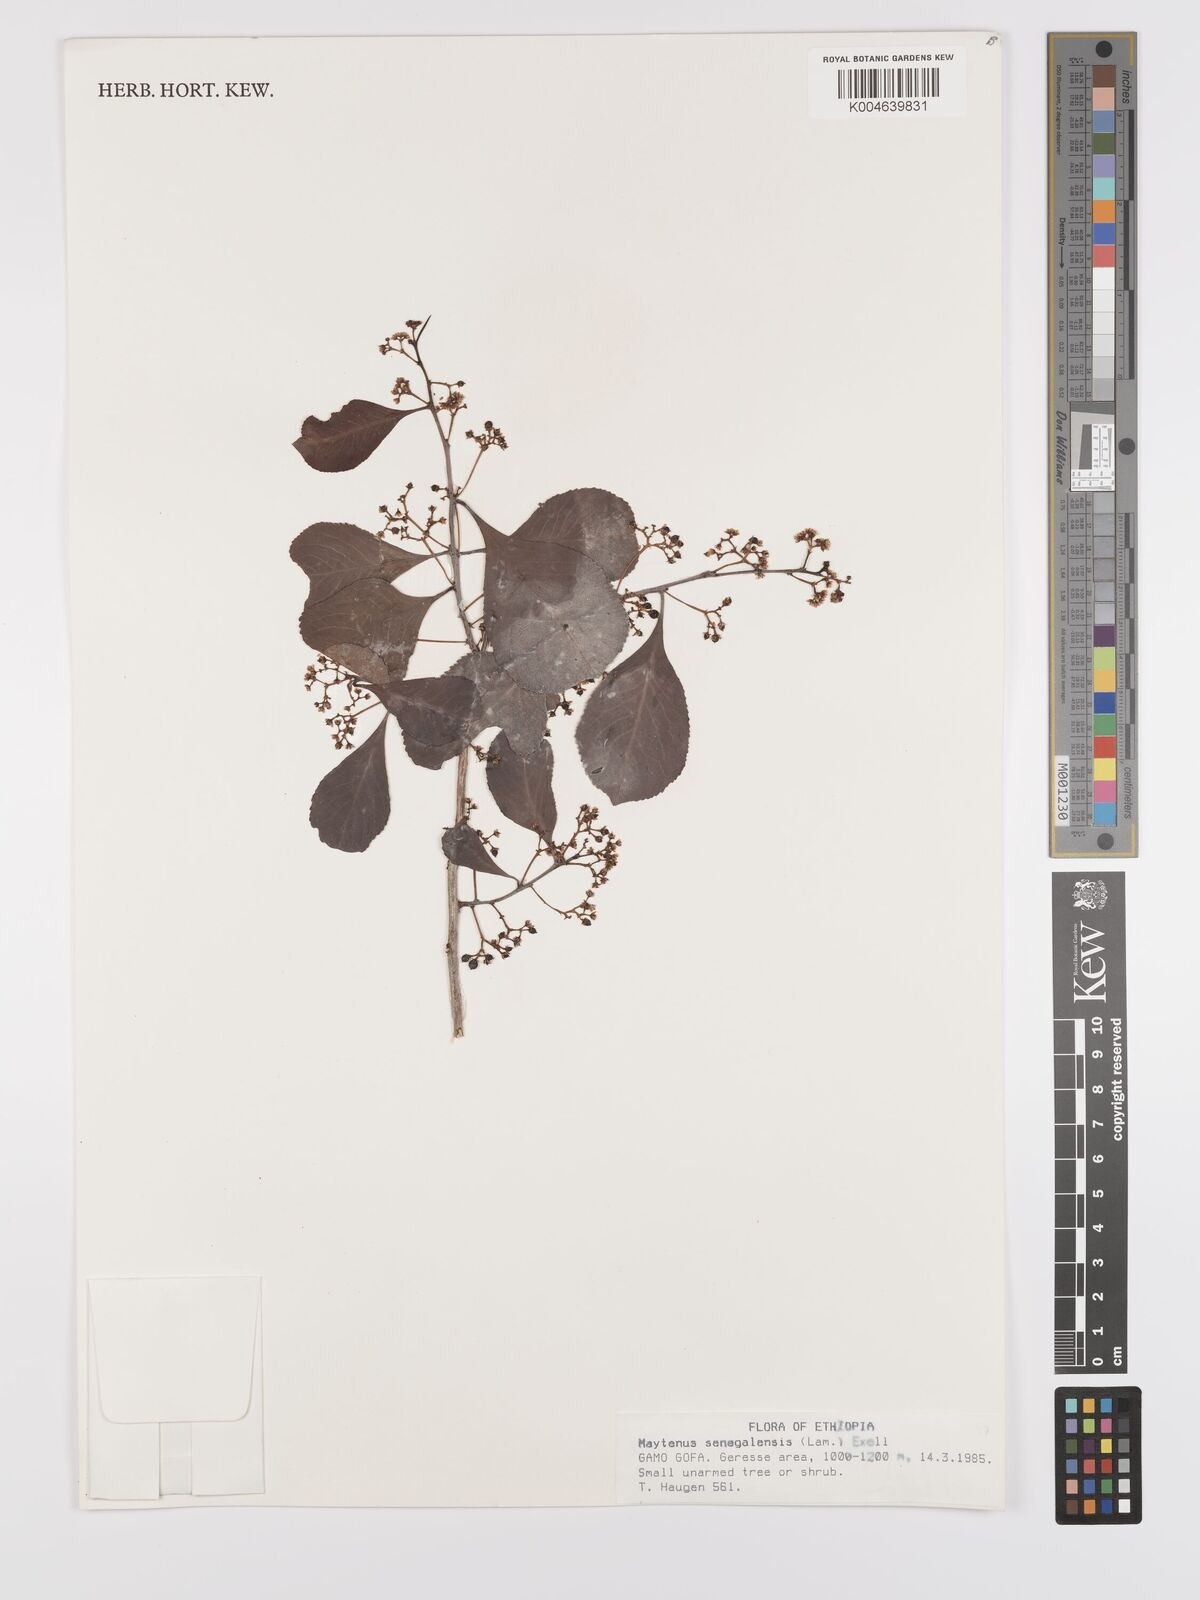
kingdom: Plantae
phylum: Tracheophyta
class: Magnoliopsida
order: Celastrales
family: Celastraceae
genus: Gymnosporia
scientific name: Gymnosporia senegalensis
